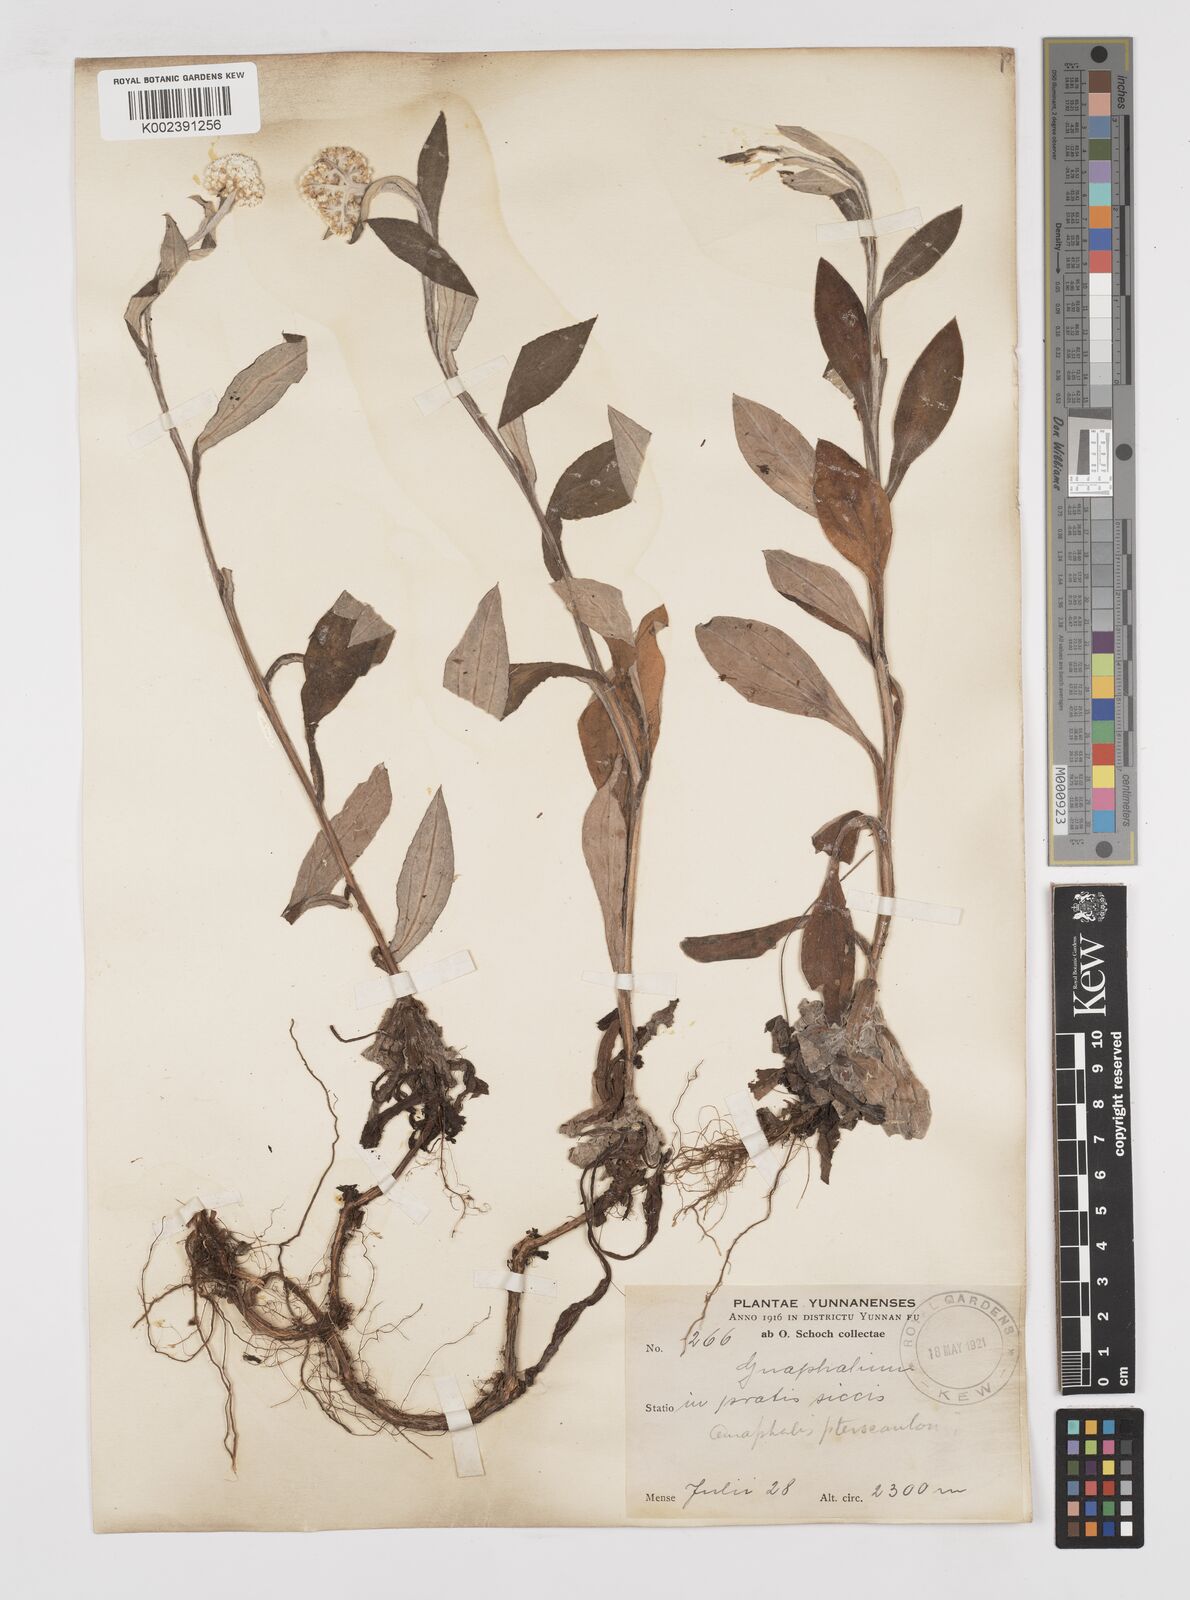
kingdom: Plantae
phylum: Tracheophyta
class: Magnoliopsida
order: Asterales
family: Asteraceae
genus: Anaphalis
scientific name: Anaphalis sinica
